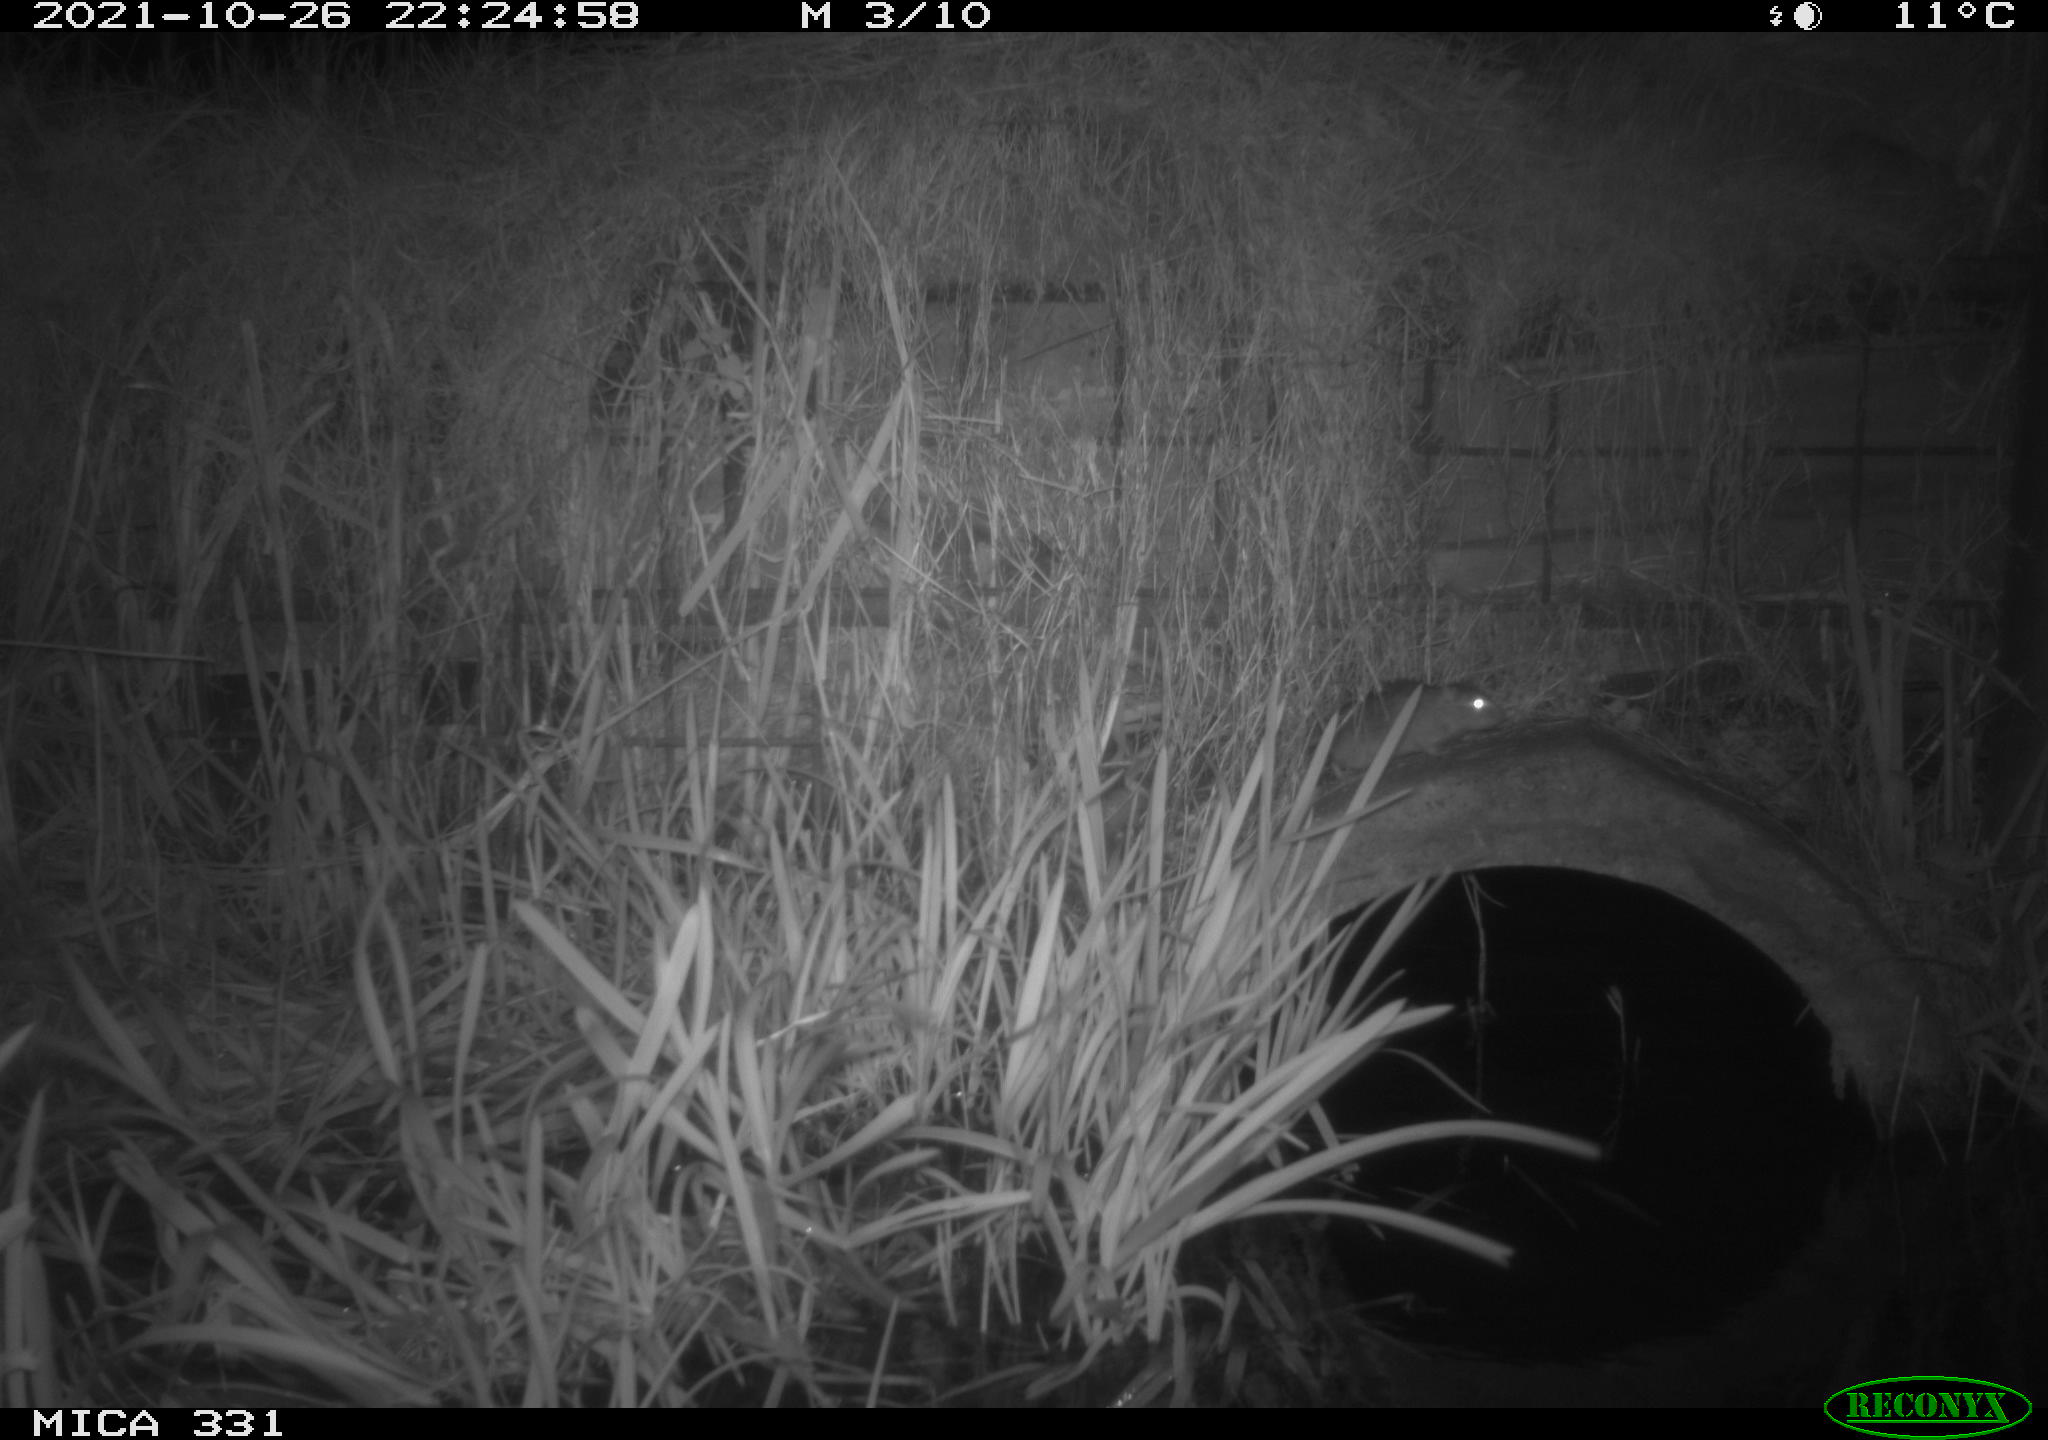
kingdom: Animalia
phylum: Chordata
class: Mammalia
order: Rodentia
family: Muridae
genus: Rattus
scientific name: Rattus norvegicus
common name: Brown rat
